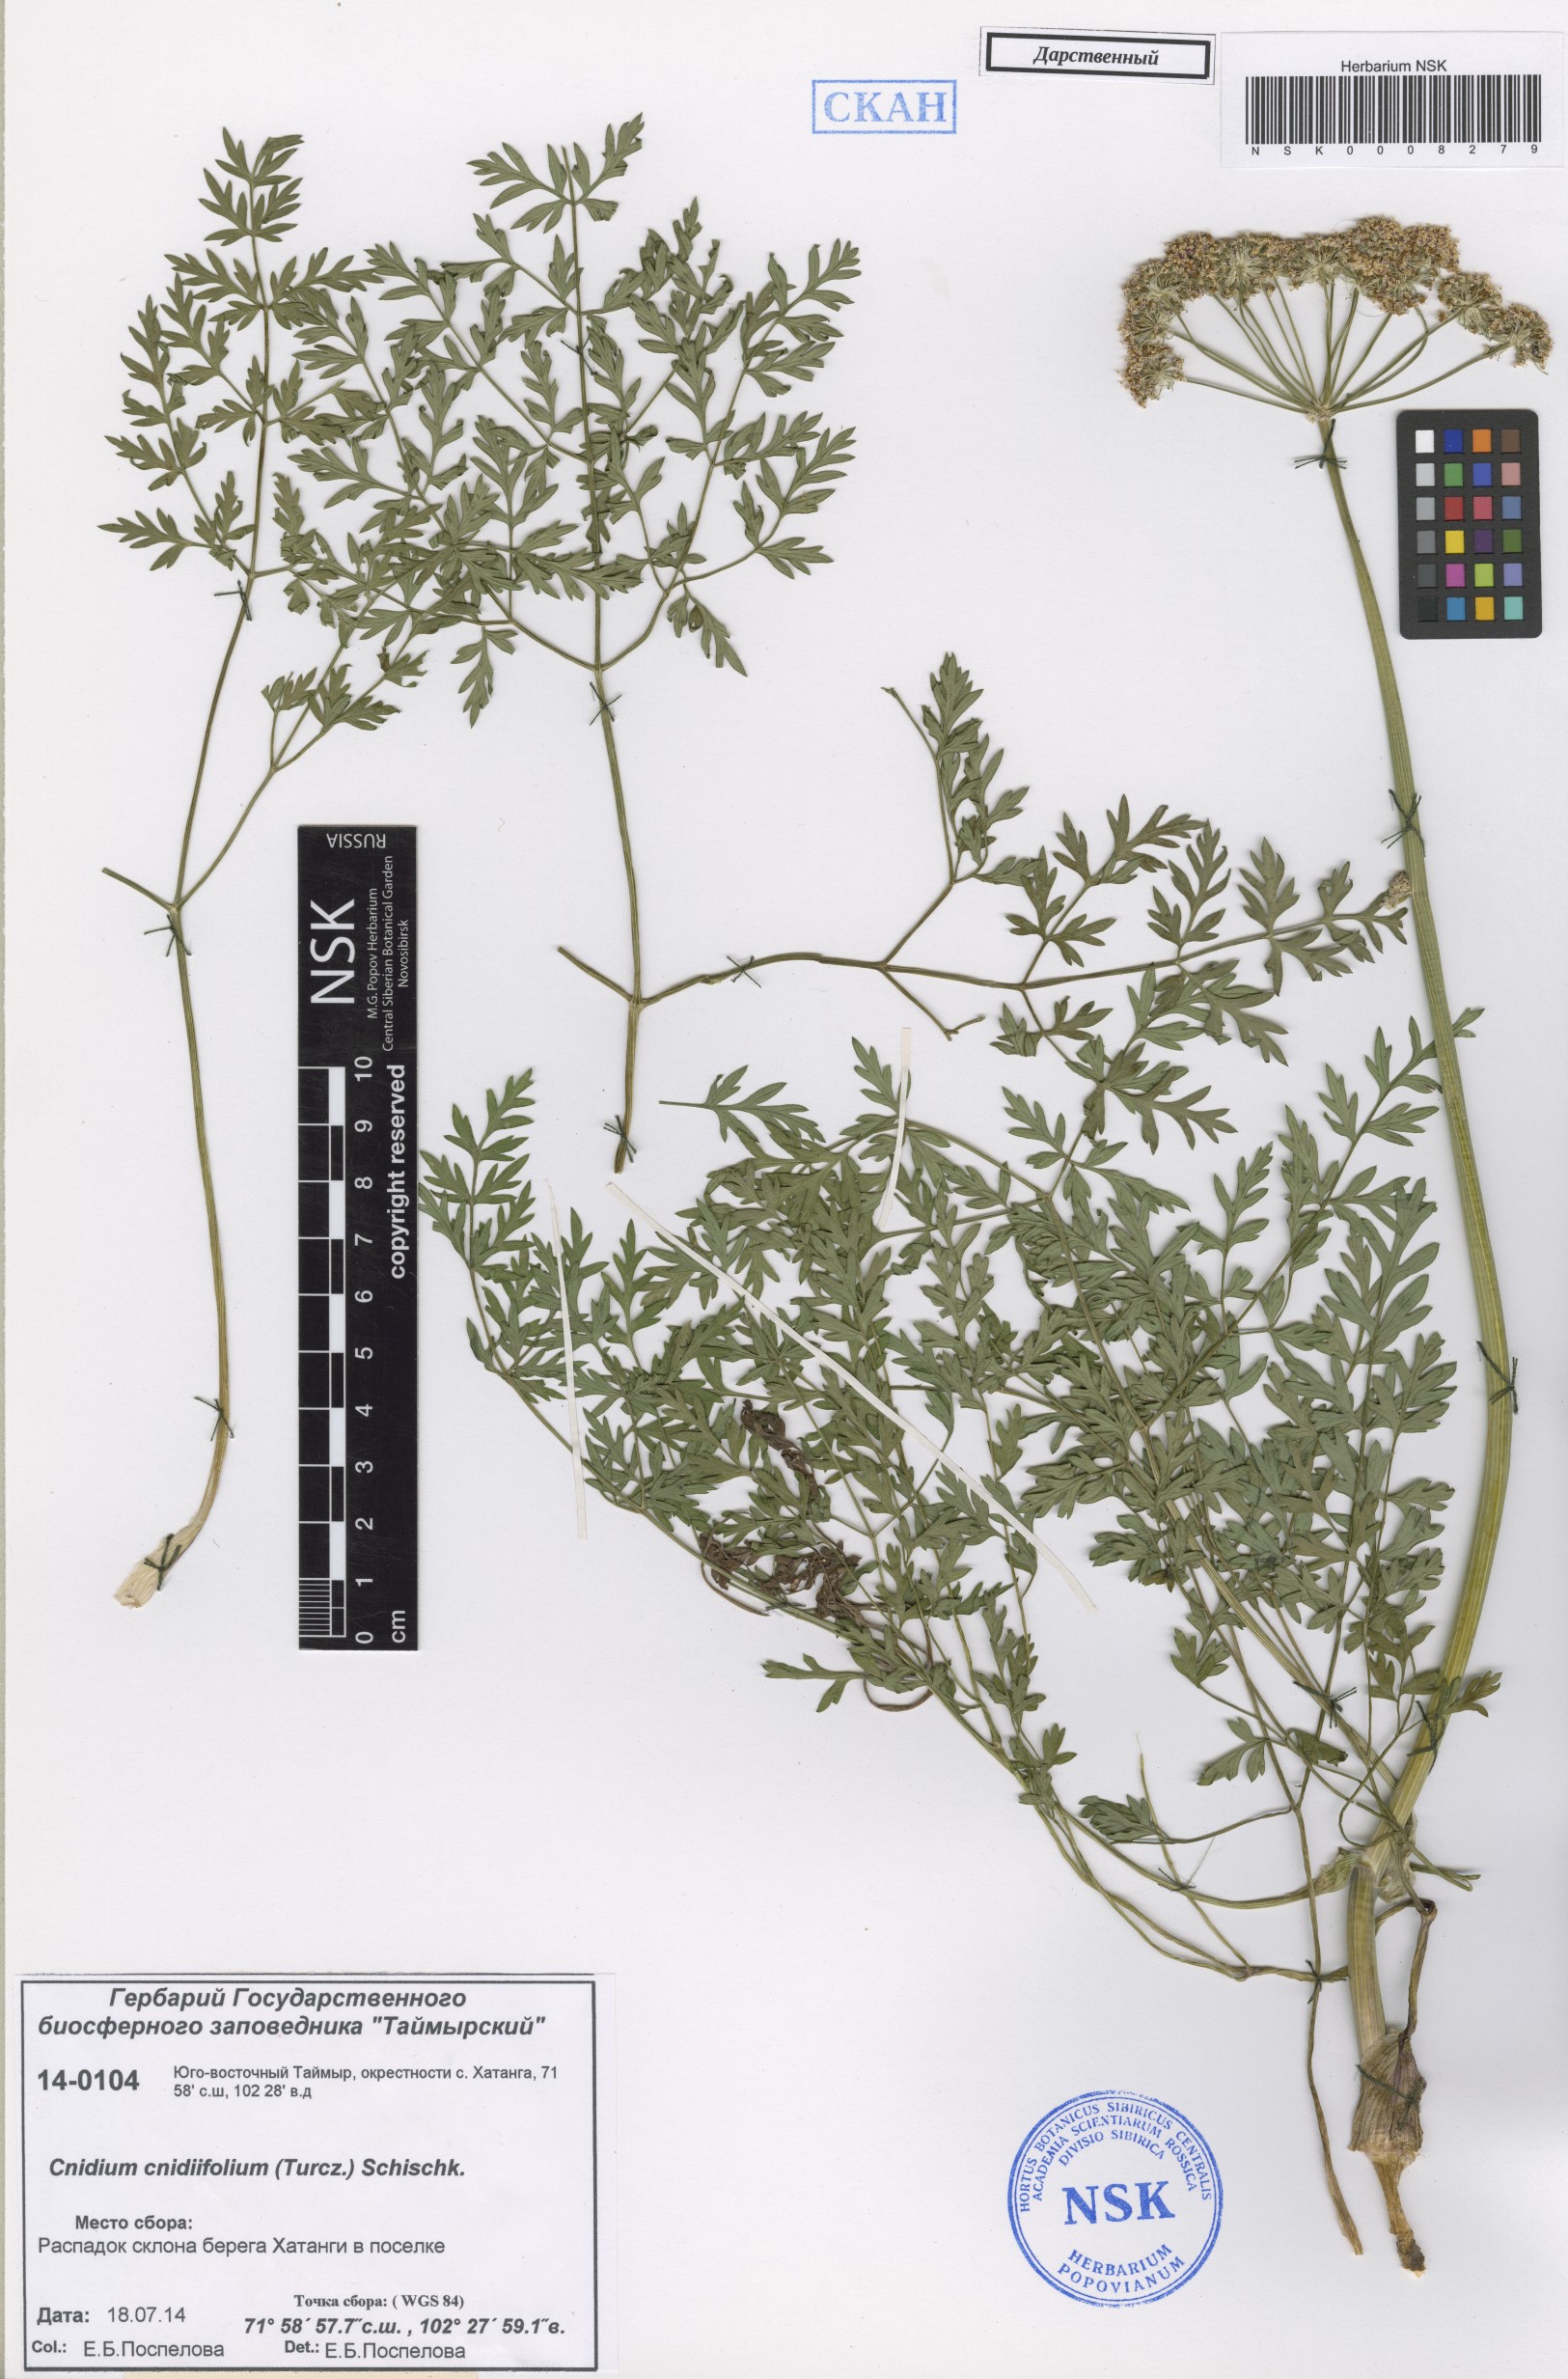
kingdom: Plantae
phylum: Tracheophyta
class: Magnoliopsida
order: Apiales
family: Apiaceae
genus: Cnidium
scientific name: Cnidium cnidiifolium
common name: Northern hemlock-parsley
